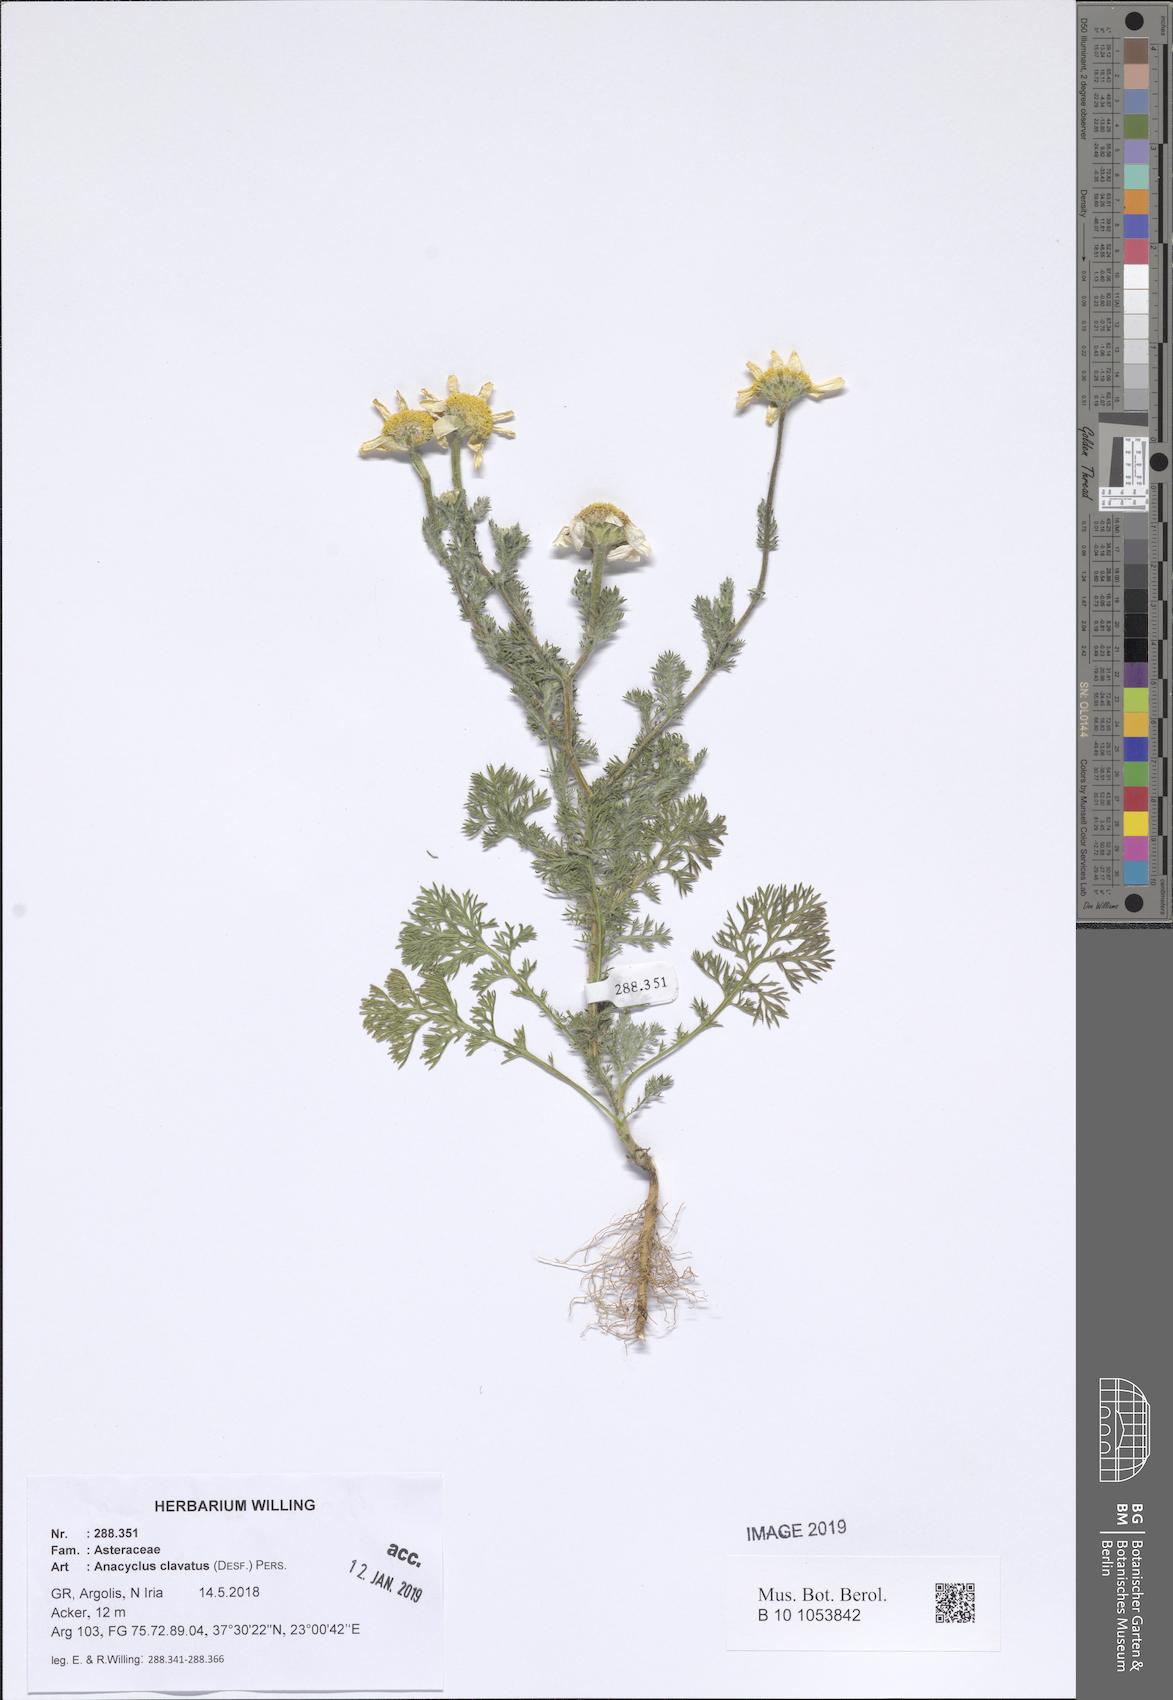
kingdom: Plantae
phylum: Tracheophyta
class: Magnoliopsida
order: Asterales
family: Asteraceae
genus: Anacyclus
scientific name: Anacyclus clavatus
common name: Whitebuttons
